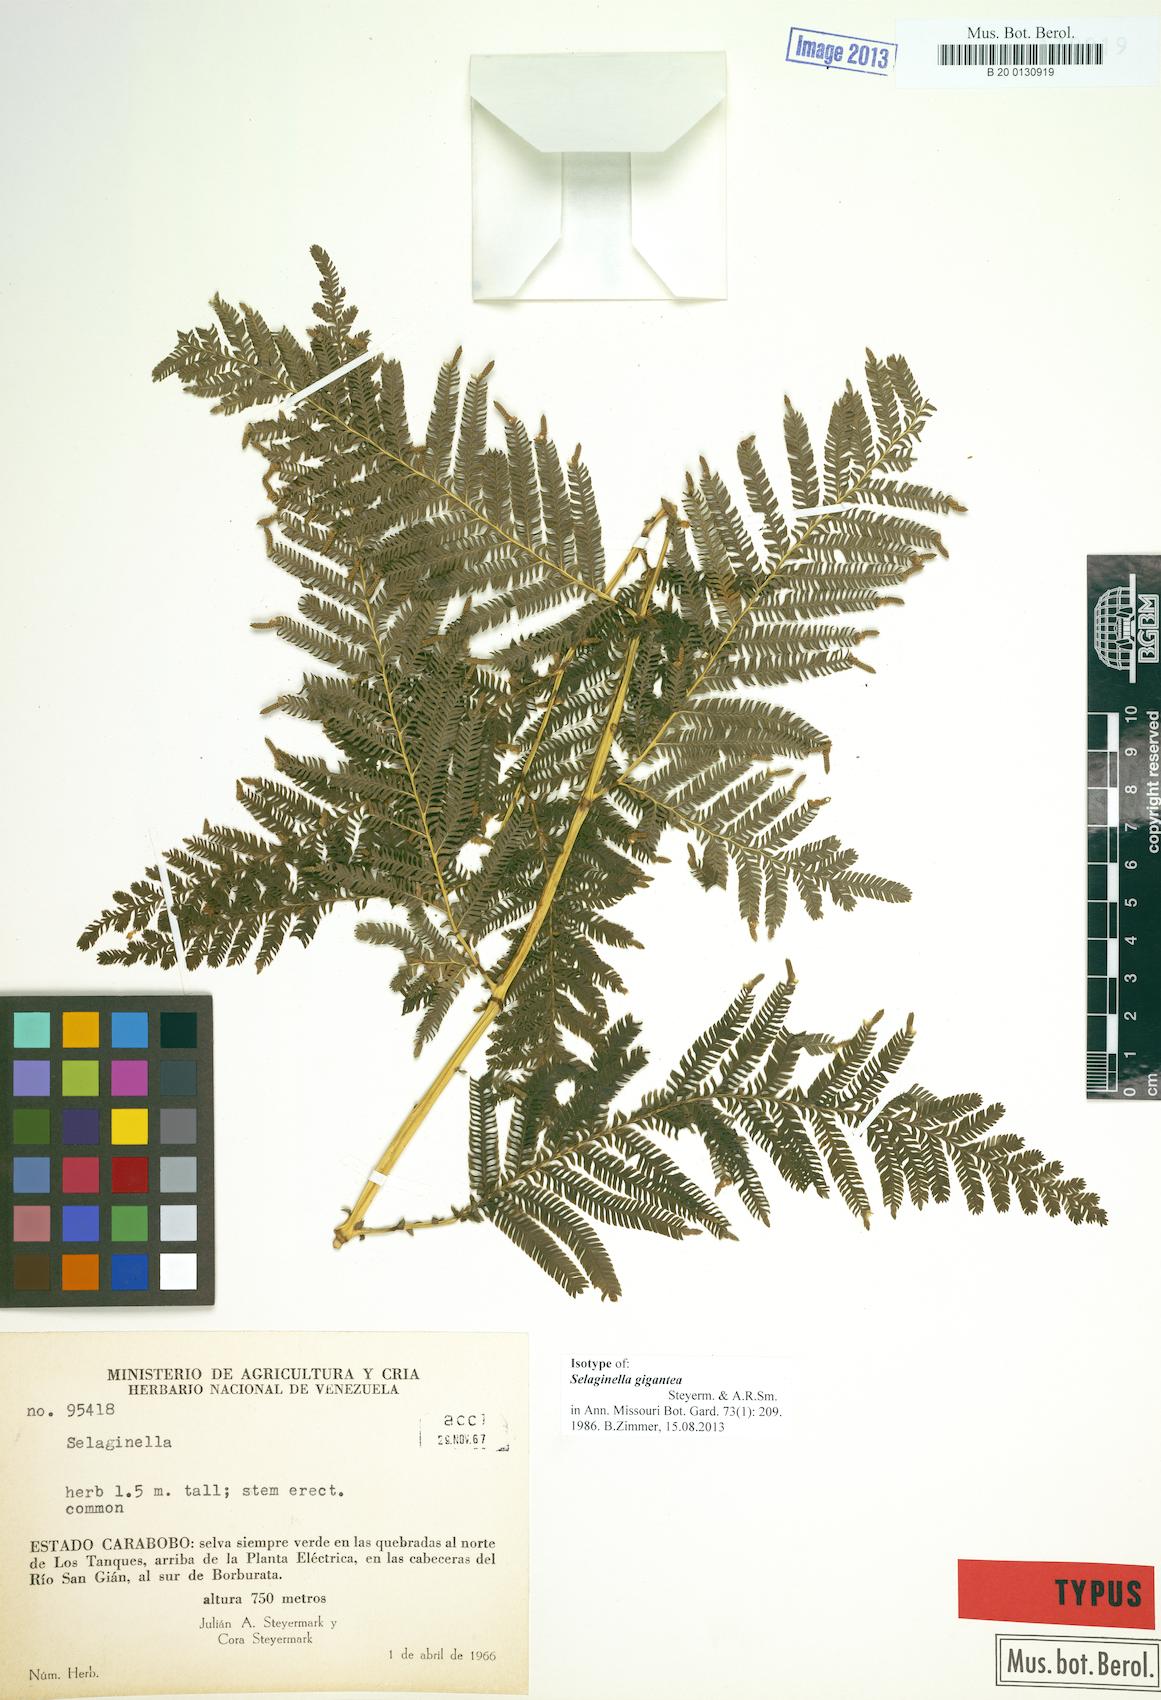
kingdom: Plantae
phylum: Tracheophyta
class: Lycopodiopsida
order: Selaginellales
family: Selaginellaceae
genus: Selaginella
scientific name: Selaginella gigantea
